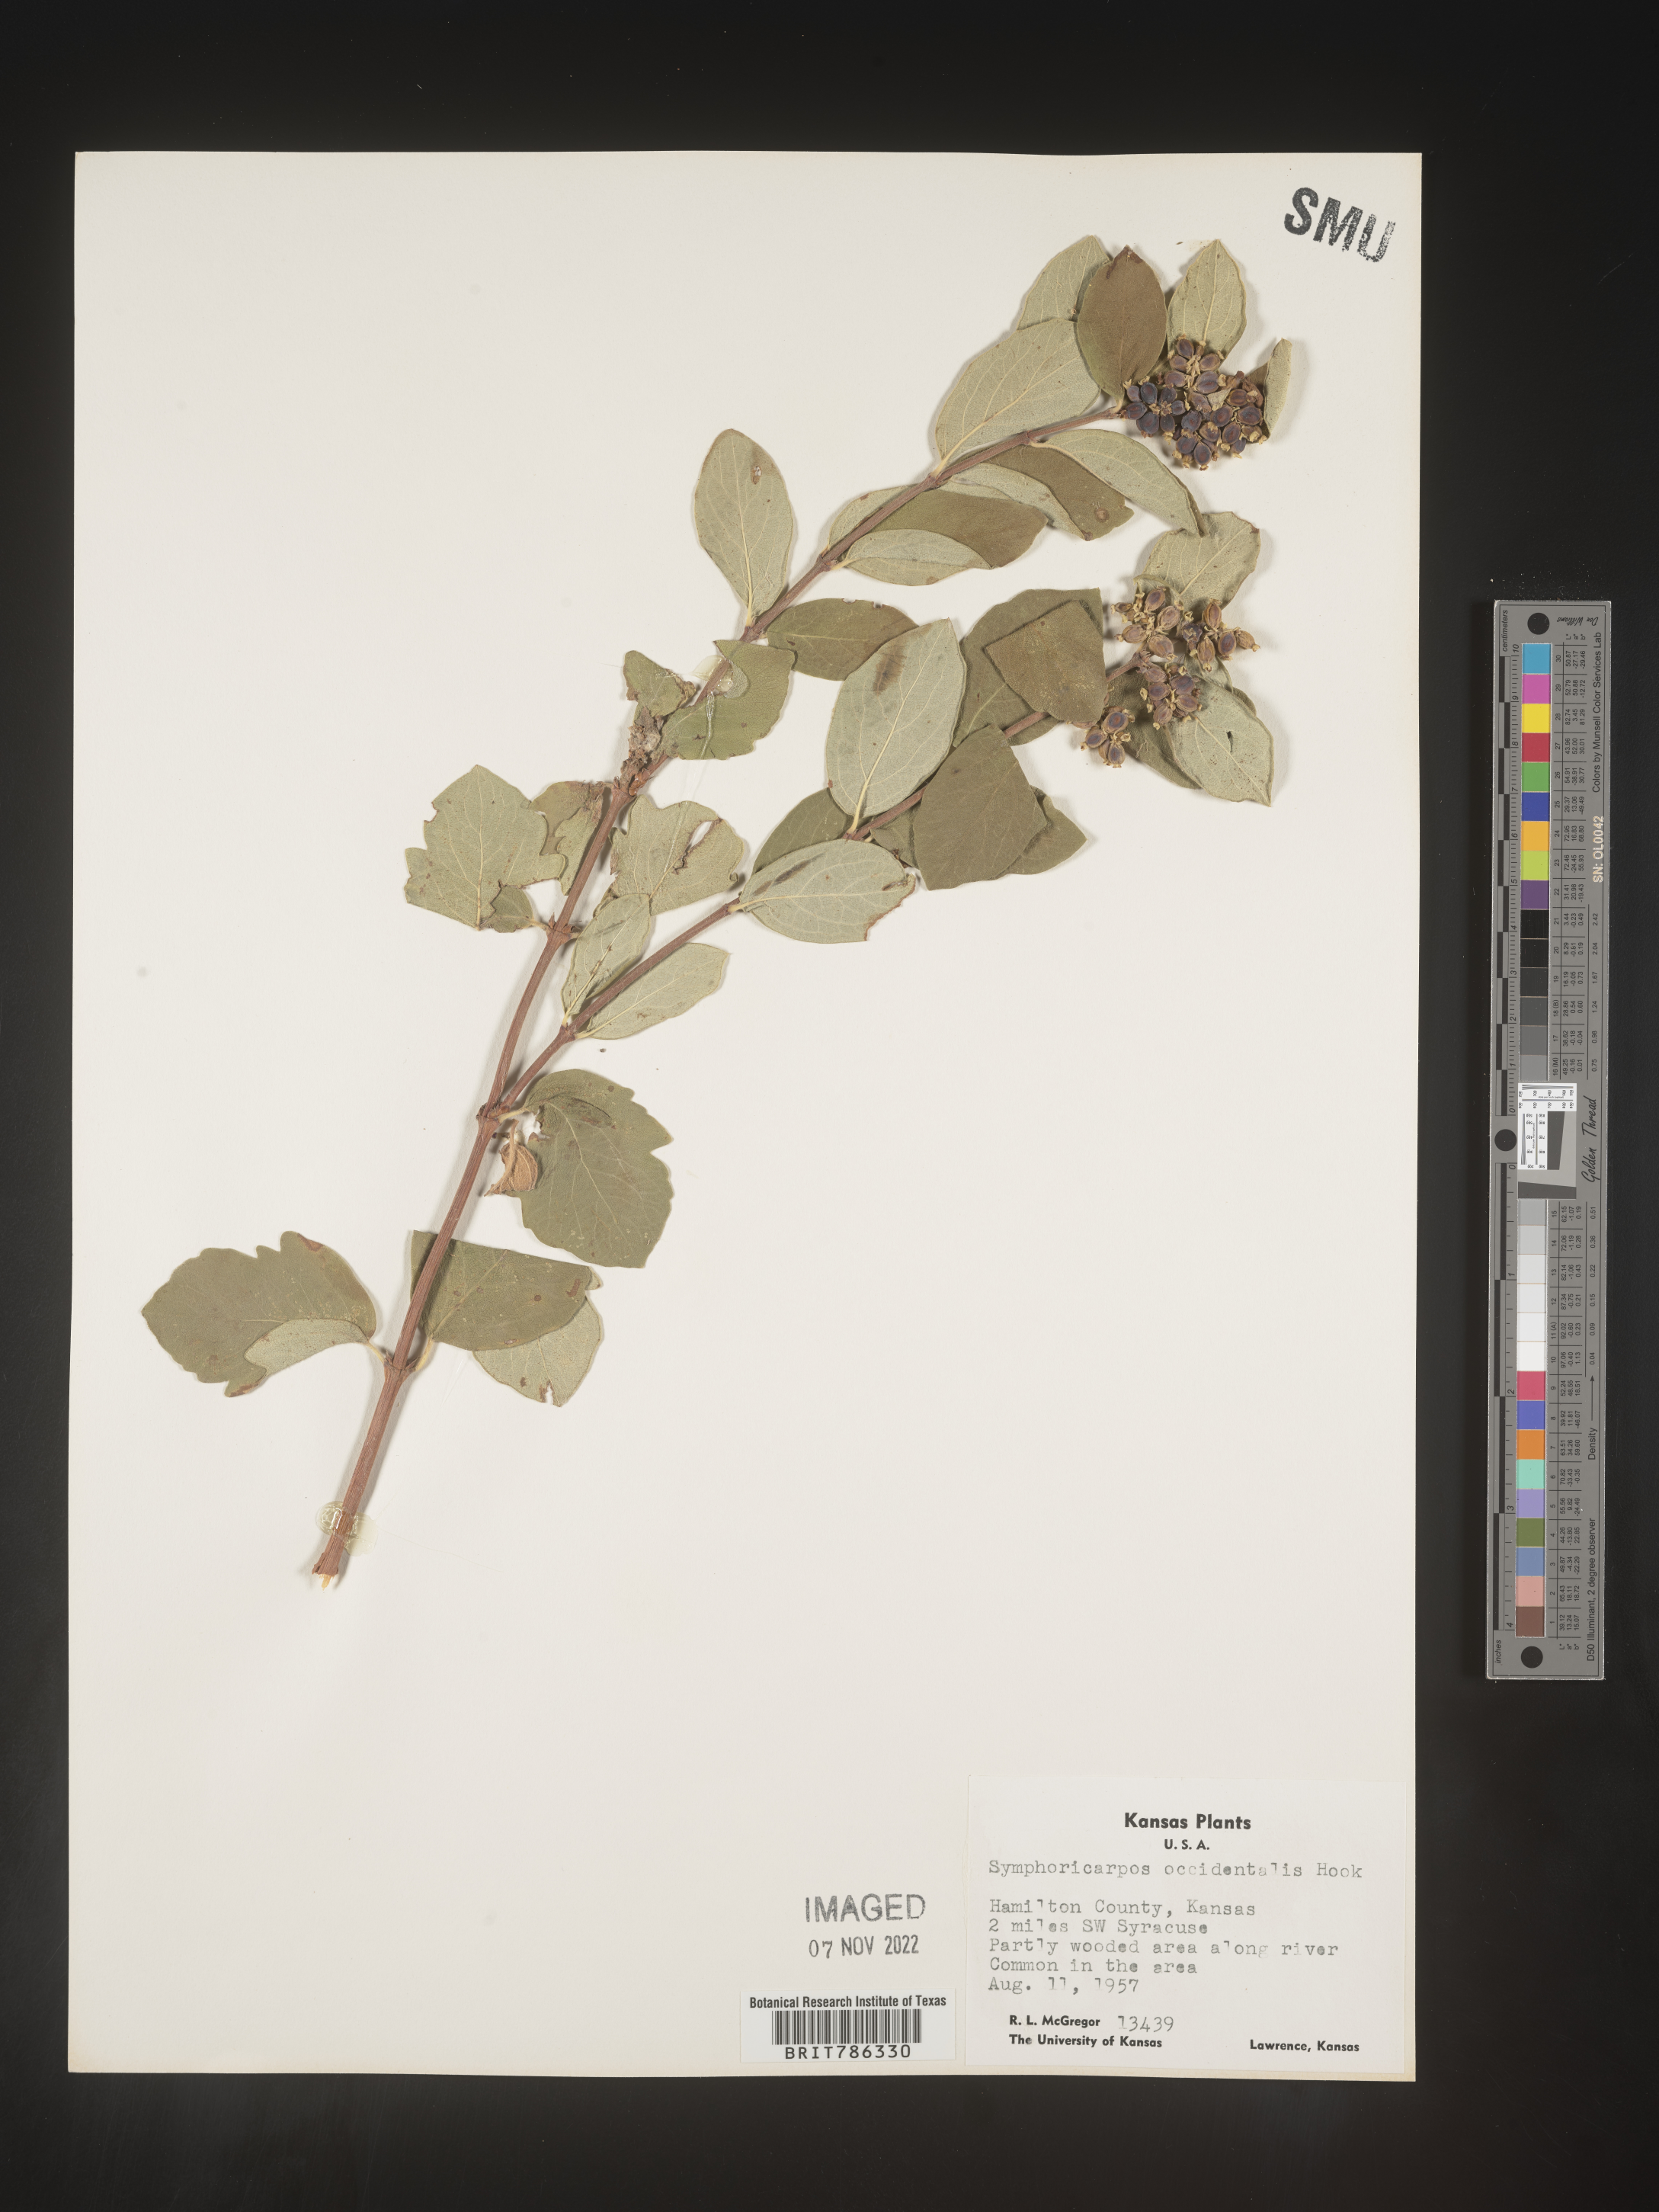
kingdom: Plantae
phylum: Tracheophyta
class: Magnoliopsida
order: Dipsacales
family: Caprifoliaceae
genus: Symphoricarpos
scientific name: Symphoricarpos occidentalis
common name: Wolfberry
